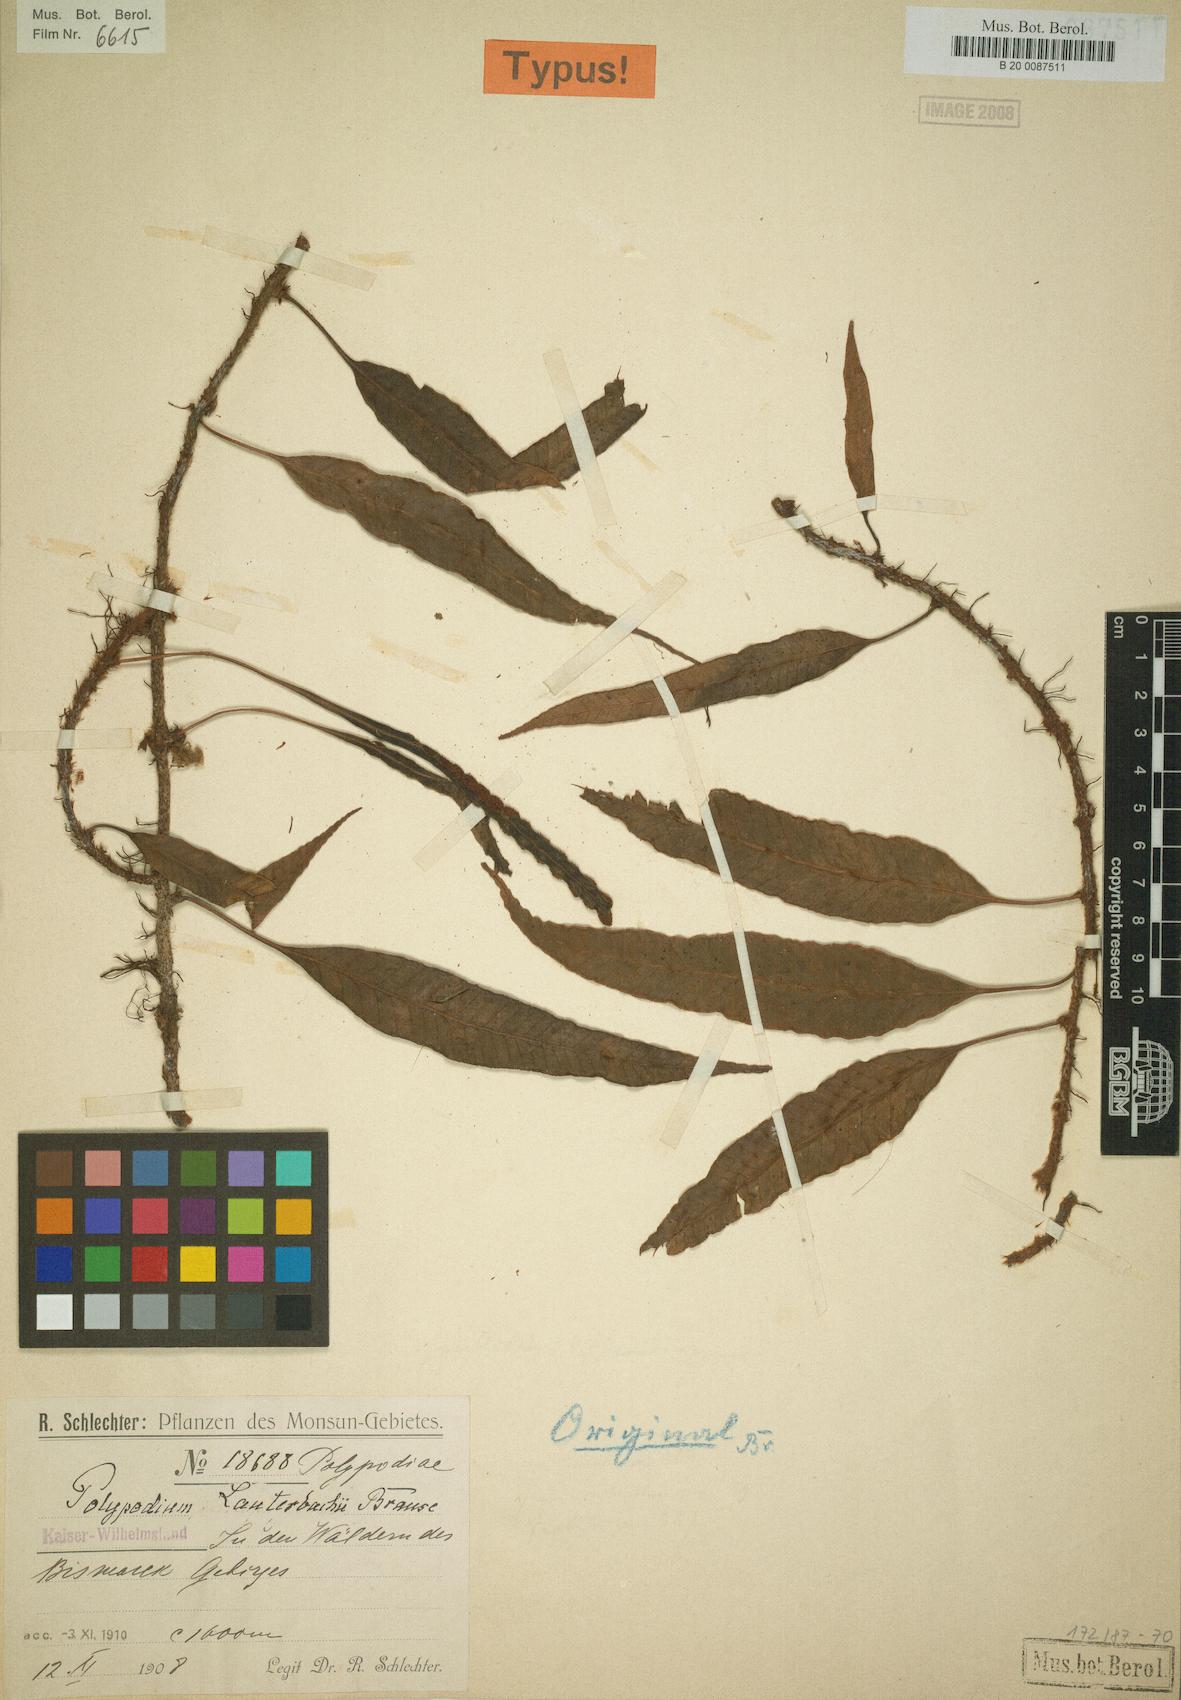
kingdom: Plantae
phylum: Tracheophyta
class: Polypodiopsida
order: Polypodiales
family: Polypodiaceae
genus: Selliguea
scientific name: Selliguea plantaginea
